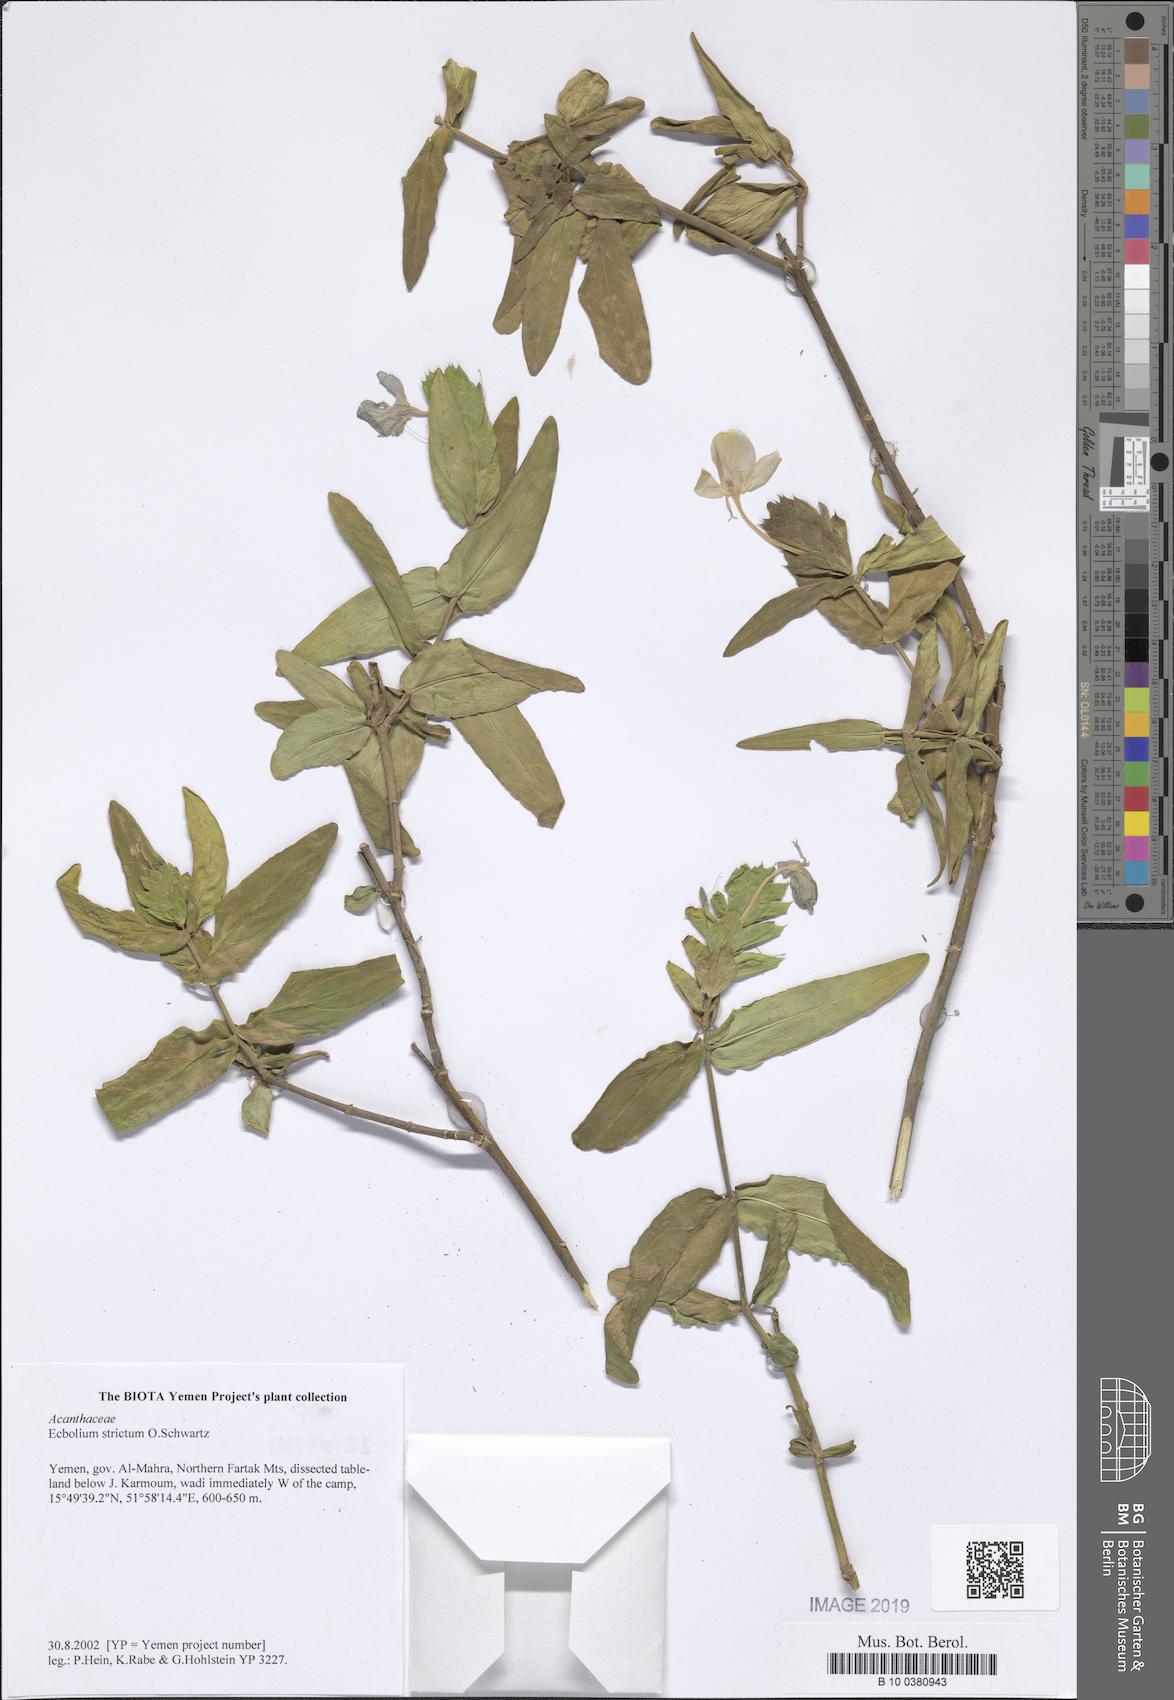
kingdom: Plantae
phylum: Tracheophyta
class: Magnoliopsida
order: Lamiales
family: Acanthaceae
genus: Ecbolium
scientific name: Ecbolium strictum
